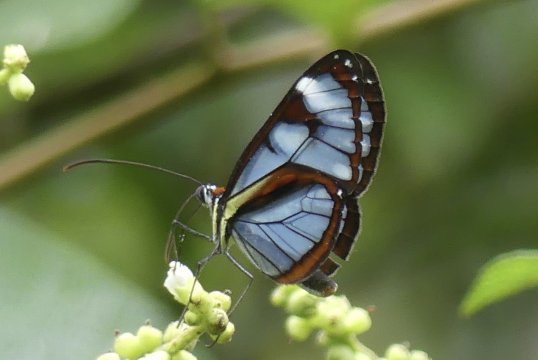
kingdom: Animalia
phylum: Arthropoda
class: Insecta
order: Lepidoptera
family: Nymphalidae
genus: Ithomia
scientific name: Ithomia diasia
